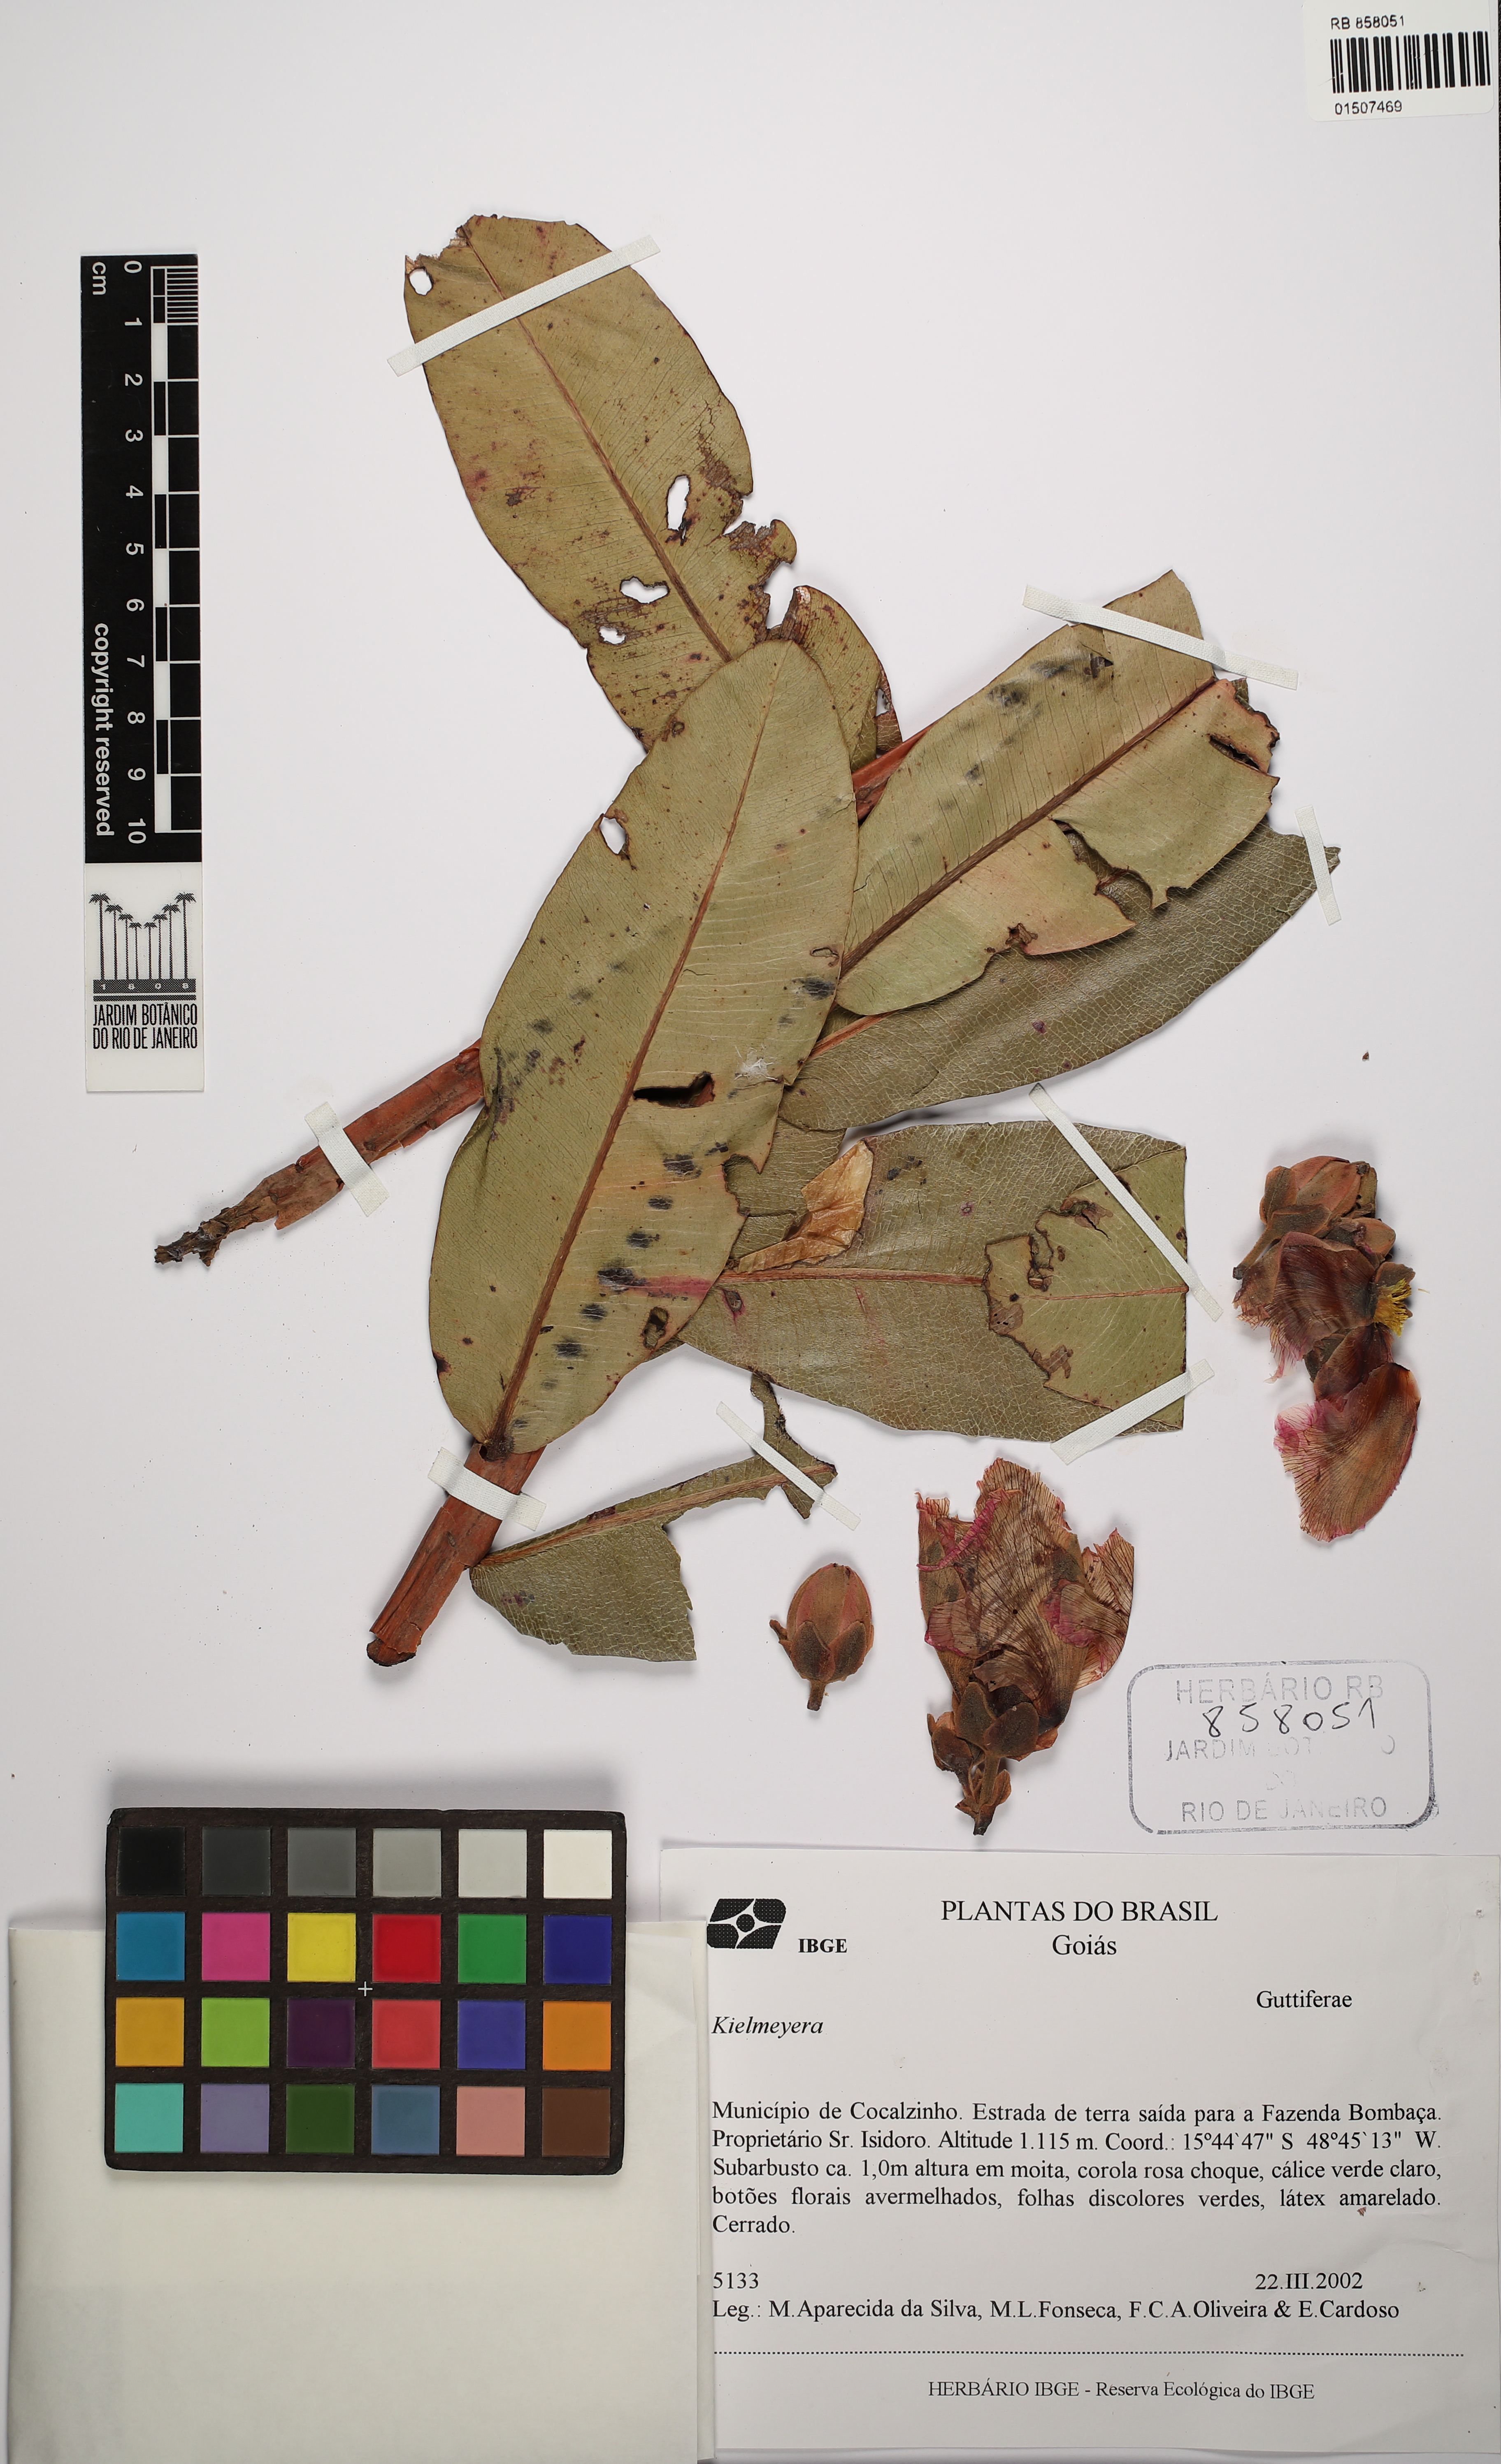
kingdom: Plantae
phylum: Tracheophyta
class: Magnoliopsida
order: Malpighiales
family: Calophyllaceae
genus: Kielmeyera
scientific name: Kielmeyera
